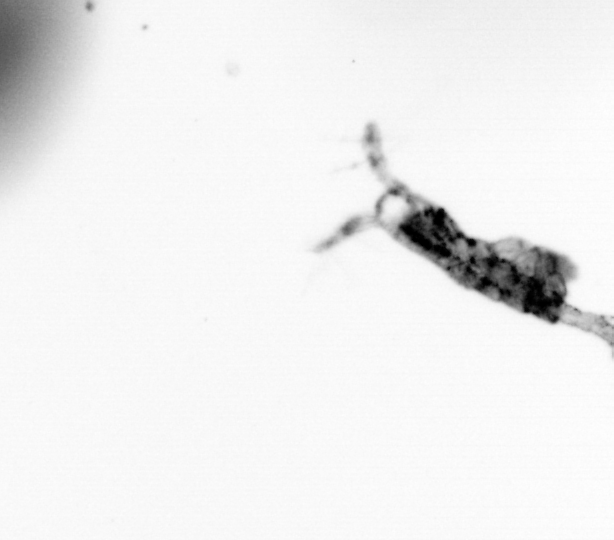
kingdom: Animalia
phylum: Arthropoda
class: Copepoda
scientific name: Copepoda
